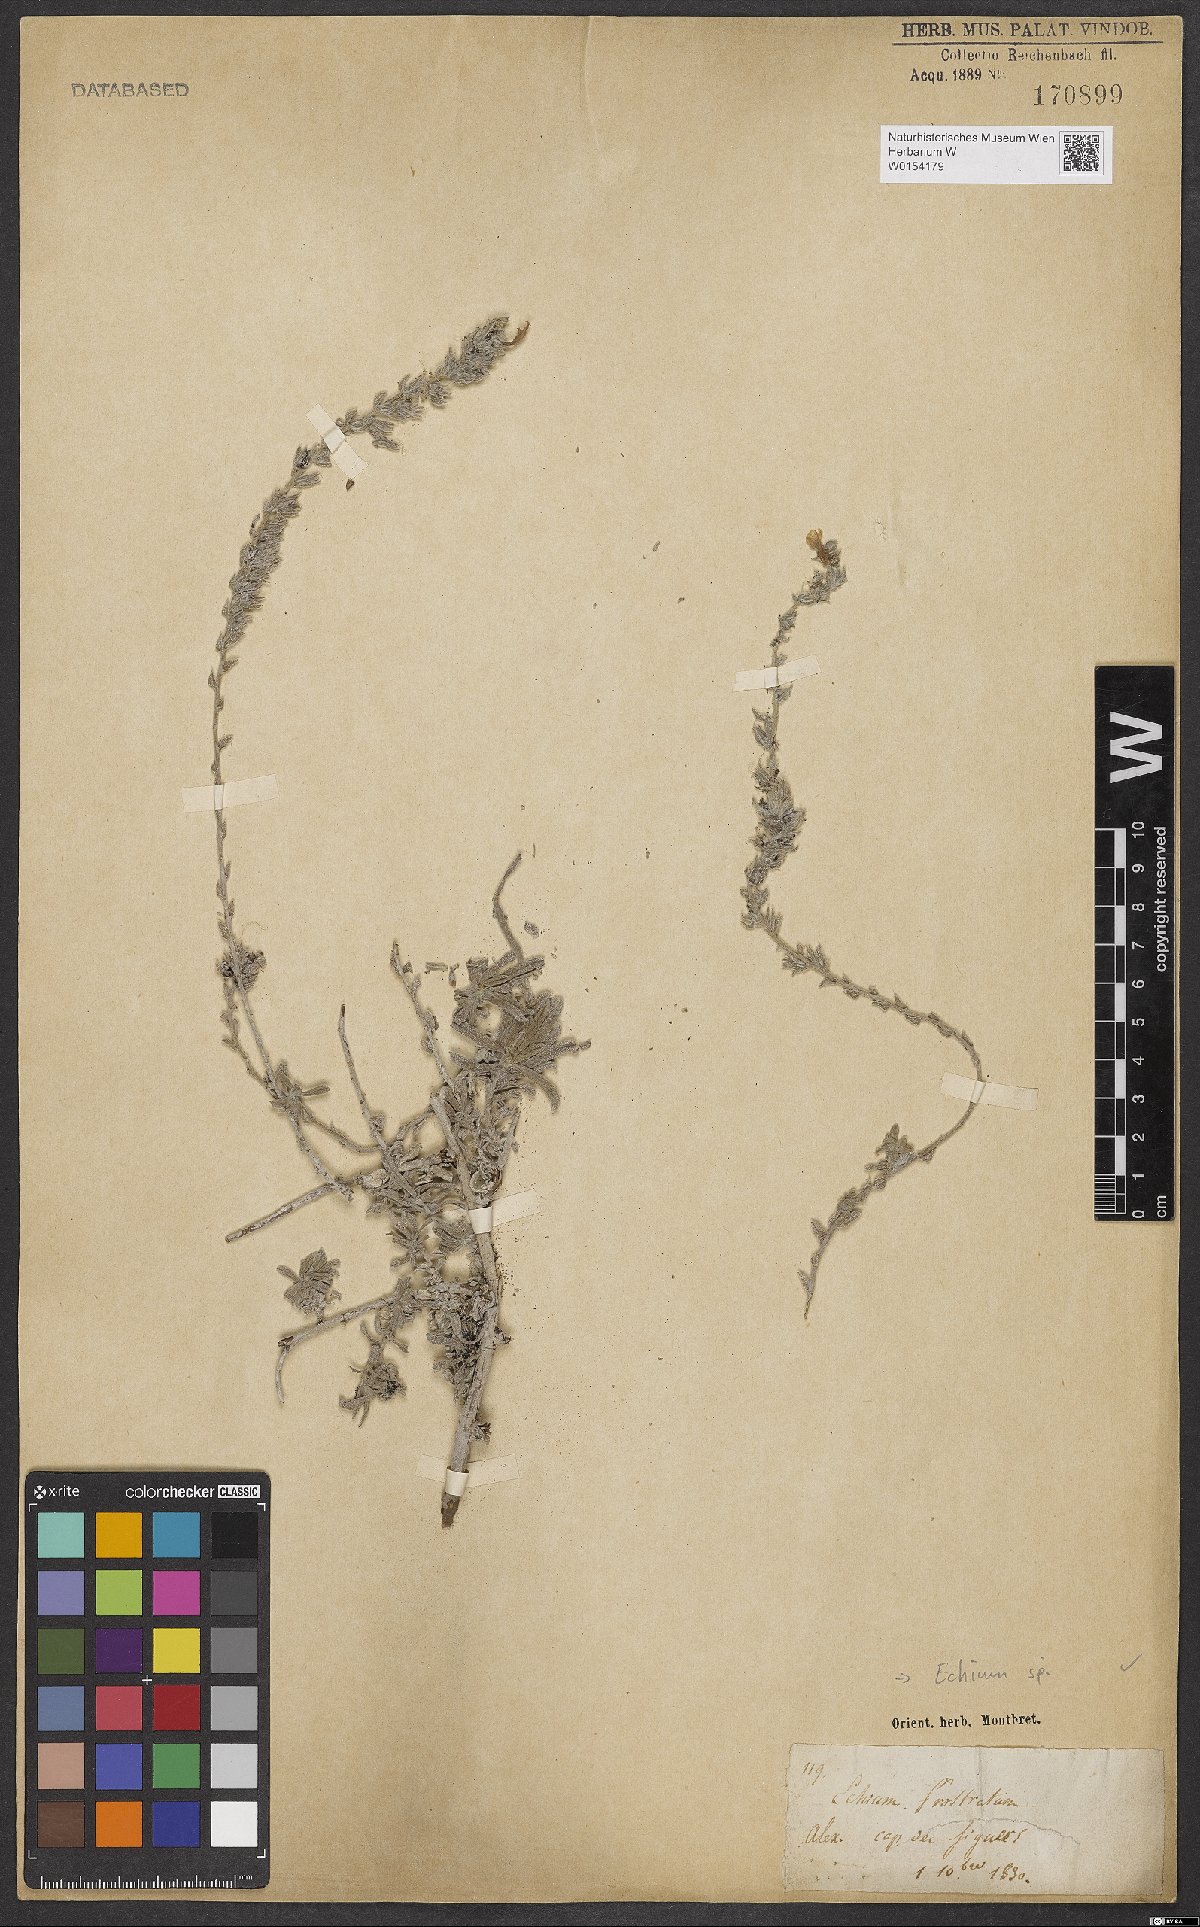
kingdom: Plantae
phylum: Tracheophyta
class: Magnoliopsida
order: Boraginales
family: Boraginaceae
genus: Echium
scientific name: Echium
